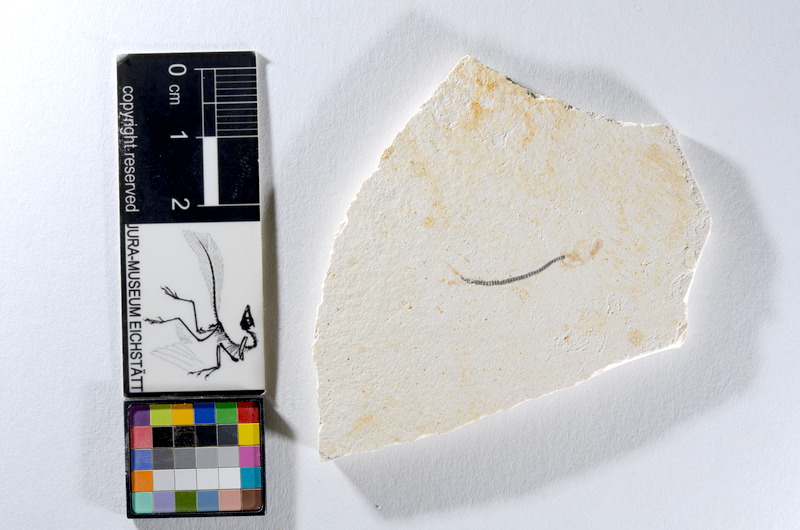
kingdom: Animalia
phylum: Chordata
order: Salmoniformes
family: Orthogonikleithridae
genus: Orthogonikleithrus
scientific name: Orthogonikleithrus hoelli
